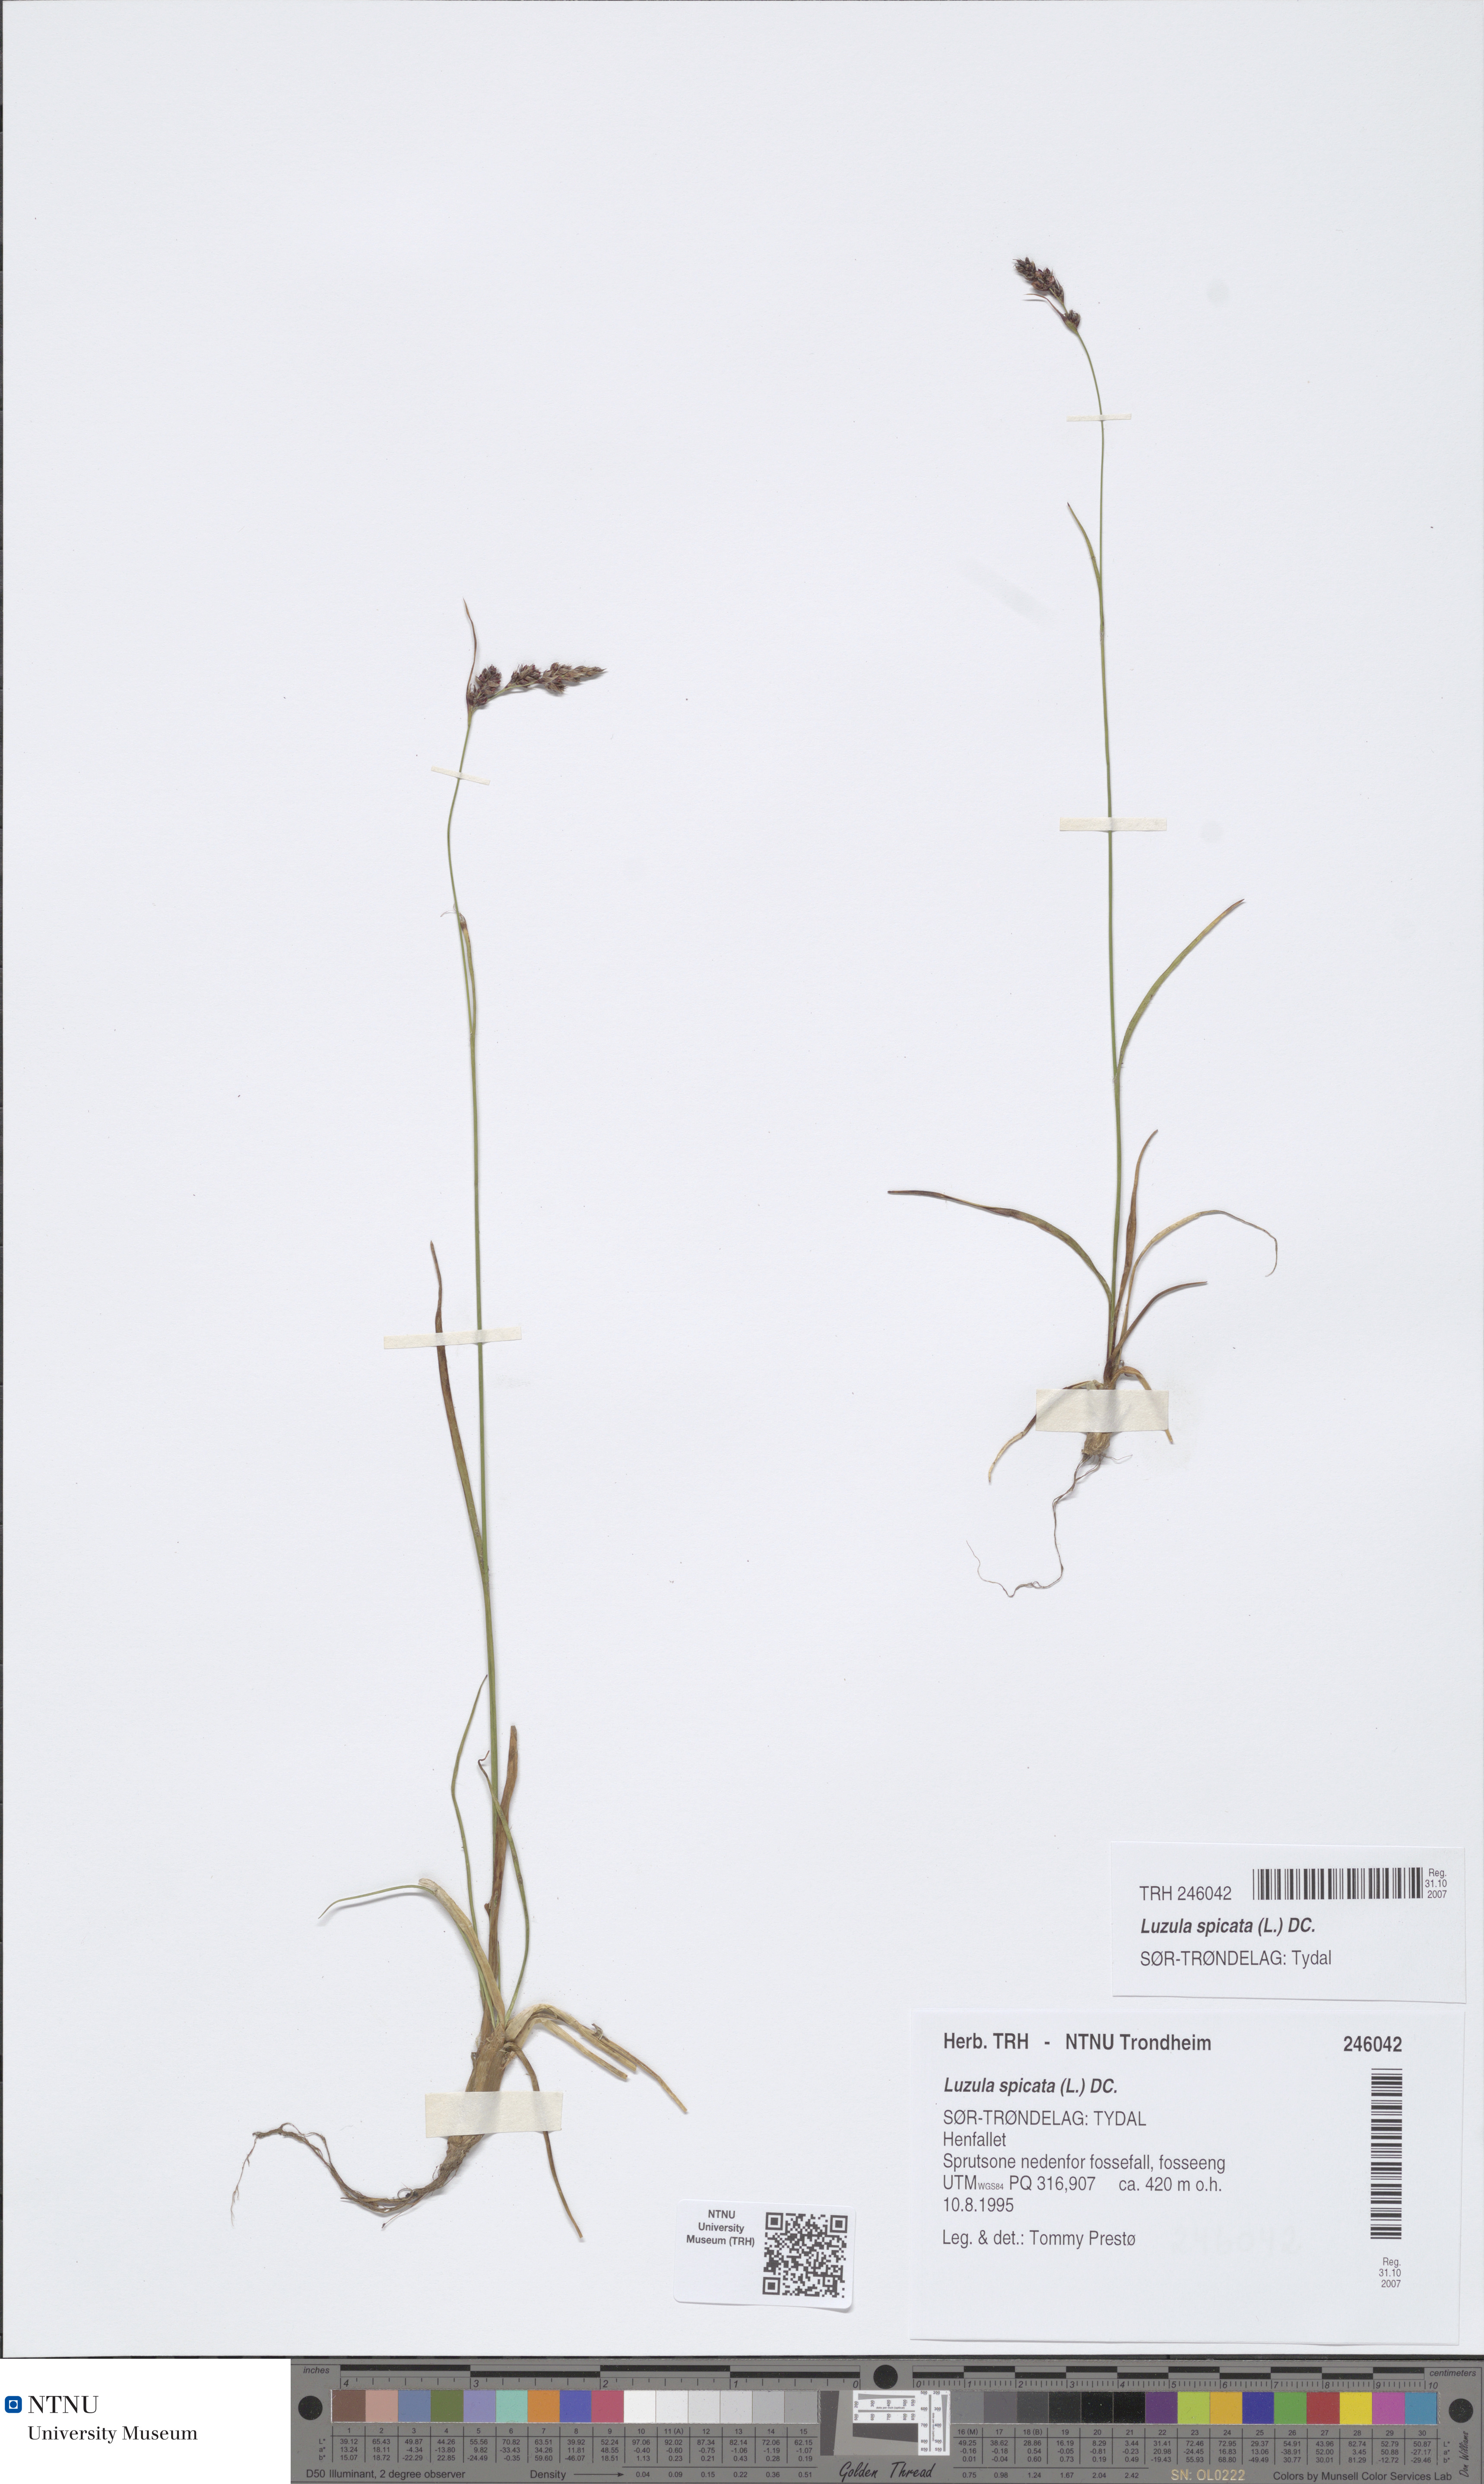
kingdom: Plantae
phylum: Tracheophyta
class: Liliopsida
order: Poales
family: Juncaceae
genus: Luzula
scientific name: Luzula spicata
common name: Spiked wood-rush
